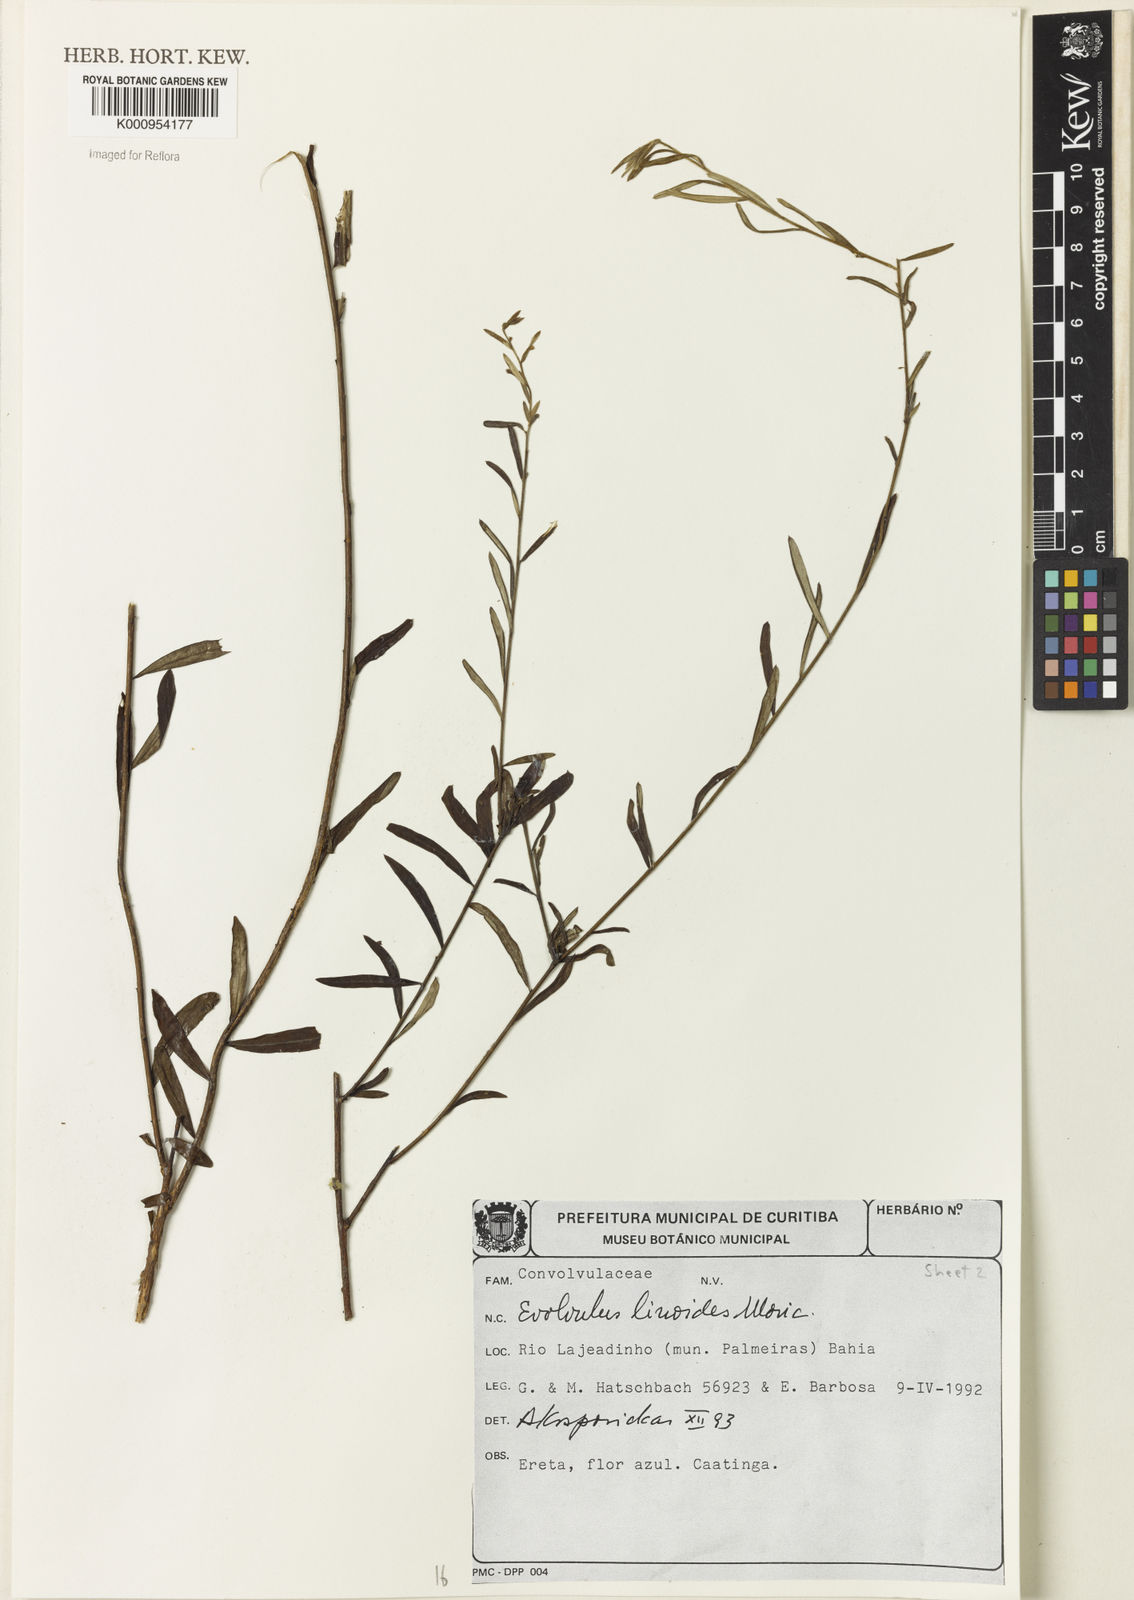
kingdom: Plantae
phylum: Tracheophyta
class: Magnoliopsida
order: Solanales
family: Convolvulaceae
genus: Evolvulus
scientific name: Evolvulus linoides
